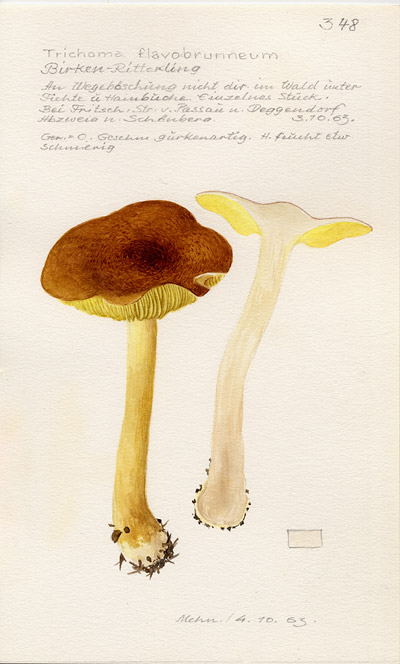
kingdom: Fungi
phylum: Basidiomycota
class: Agaricomycetes
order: Agaricales
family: Tricholomataceae
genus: Tricholoma
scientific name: Tricholoma fulvum
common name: Birch knight
